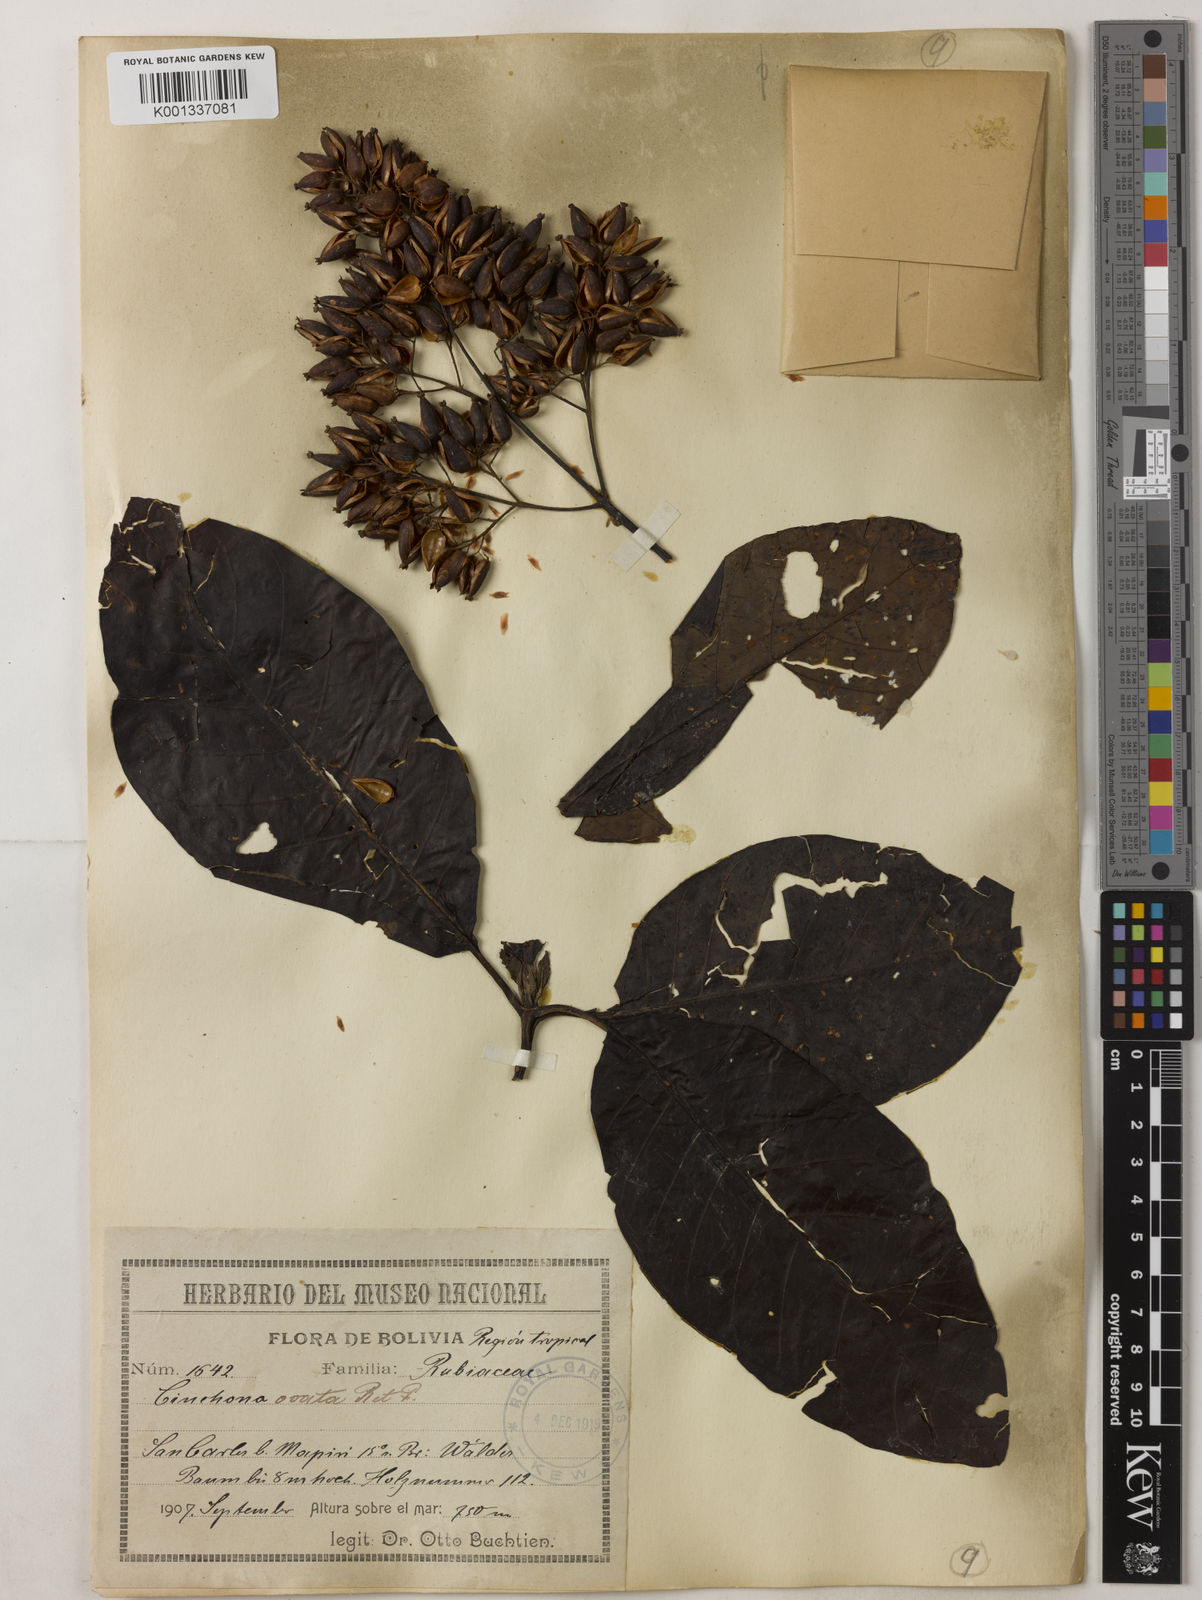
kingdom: Plantae
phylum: Tracheophyta
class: Magnoliopsida
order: Gentianales
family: Rubiaceae
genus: Cinchona
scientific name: Cinchona pubescens
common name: Quinine
